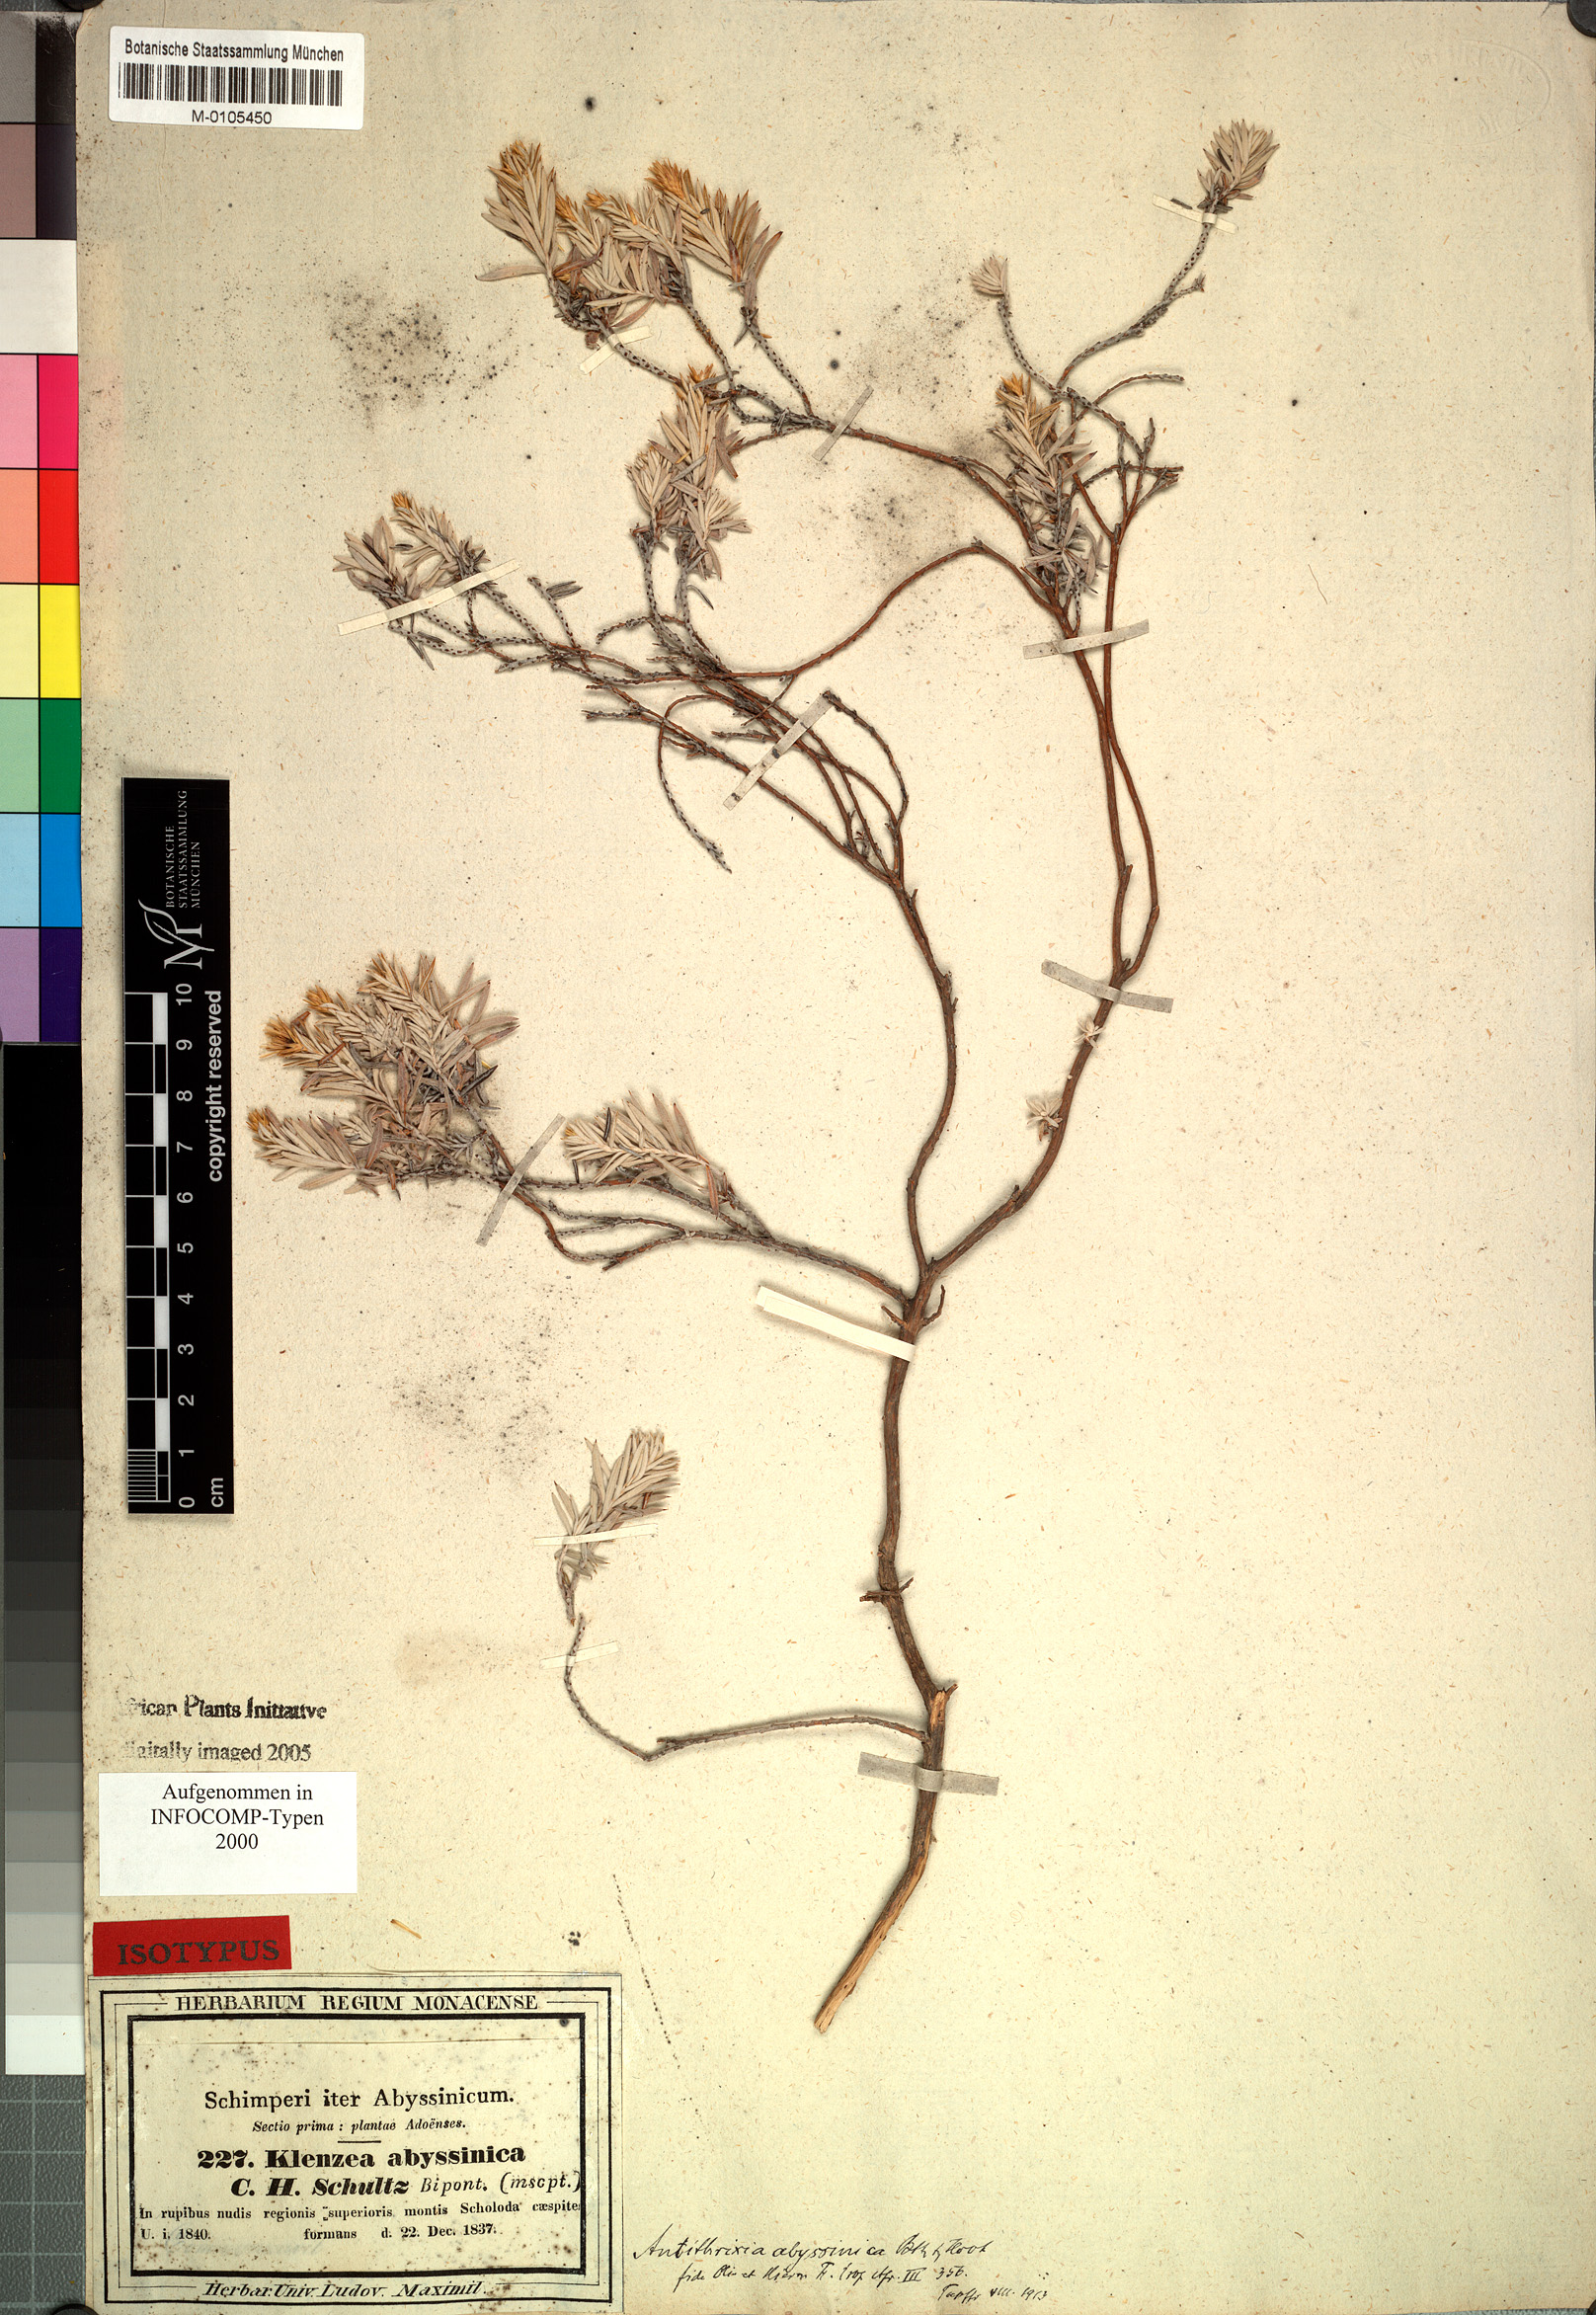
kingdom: Plantae
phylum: Tracheophyta
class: Magnoliopsida
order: Asterales
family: Asteraceae
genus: Arrowsmithia
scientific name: Arrowsmithia abyssinica
